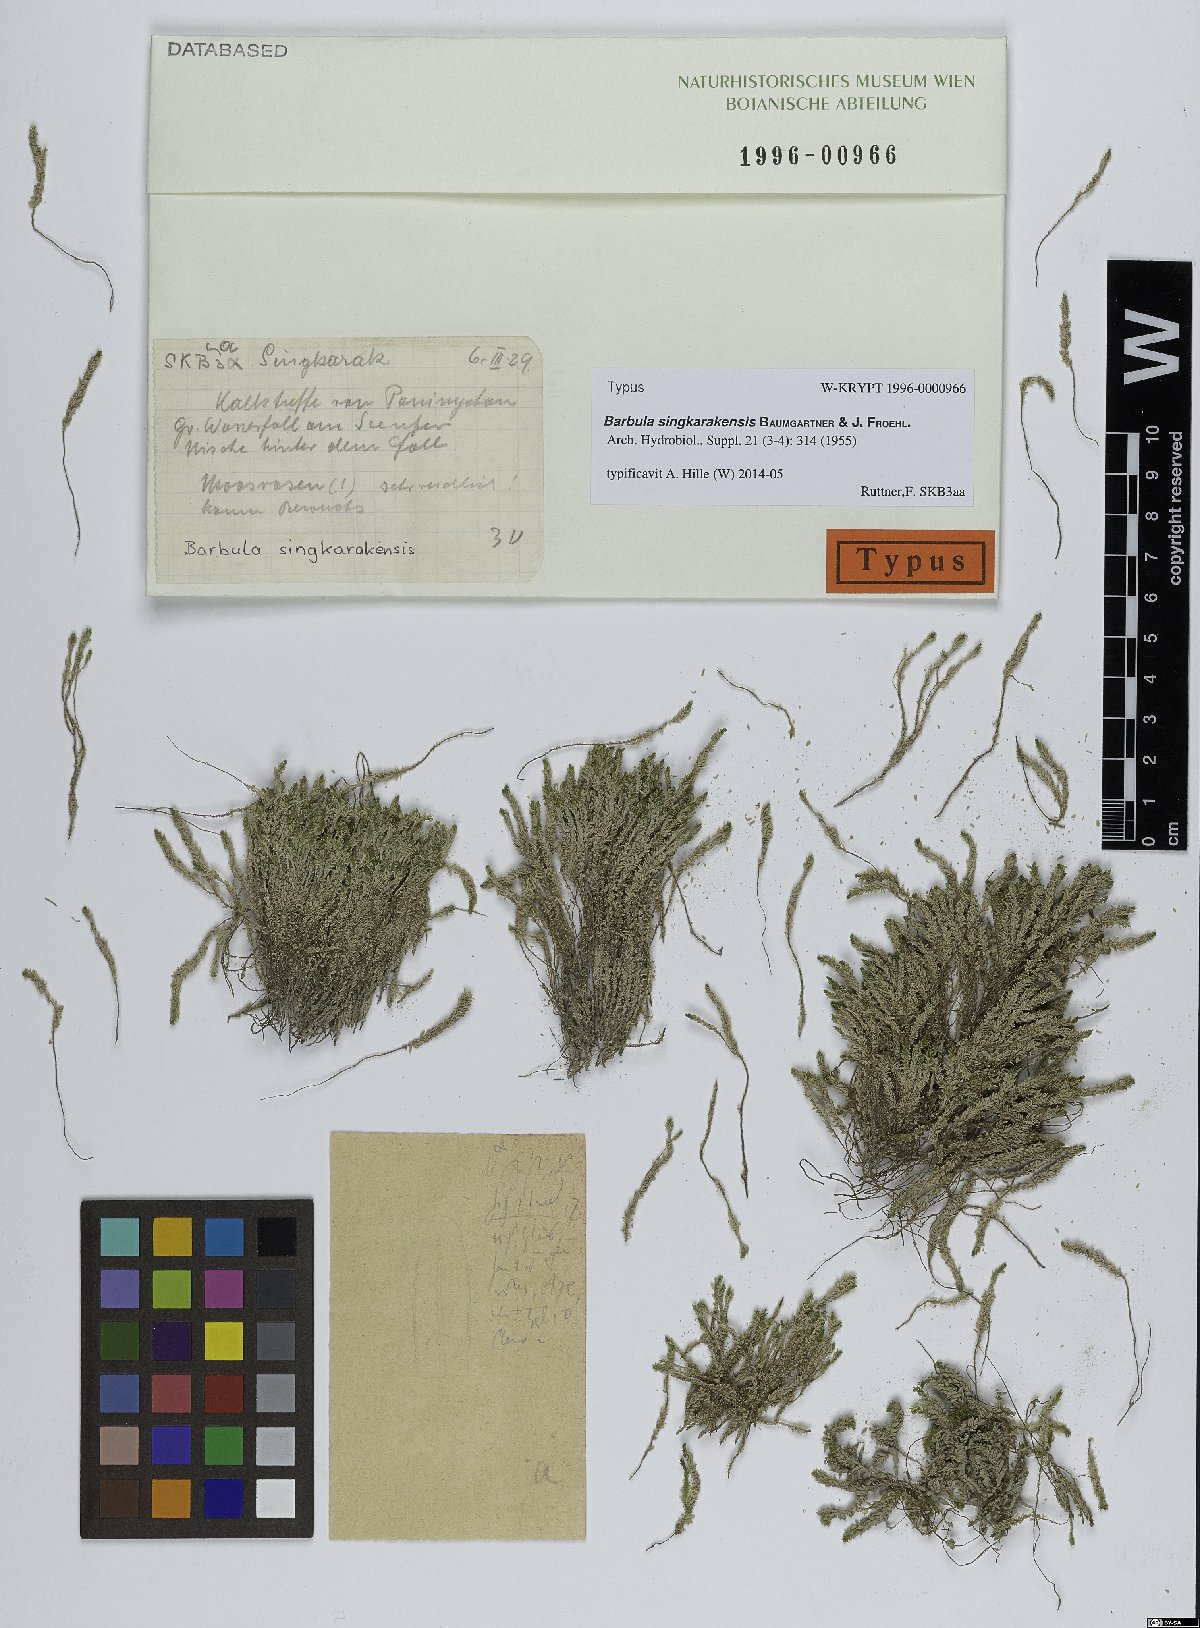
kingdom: Plantae
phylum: Bryophyta
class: Bryopsida
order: Pottiales
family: Pottiaceae
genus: Barbula
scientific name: Barbula singkarakensis
